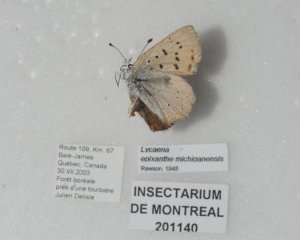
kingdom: Animalia
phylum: Arthropoda
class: Insecta
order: Lepidoptera
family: Sesiidae
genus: Sesia
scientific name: Sesia Lycaena epixanthe
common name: Bog Copper
